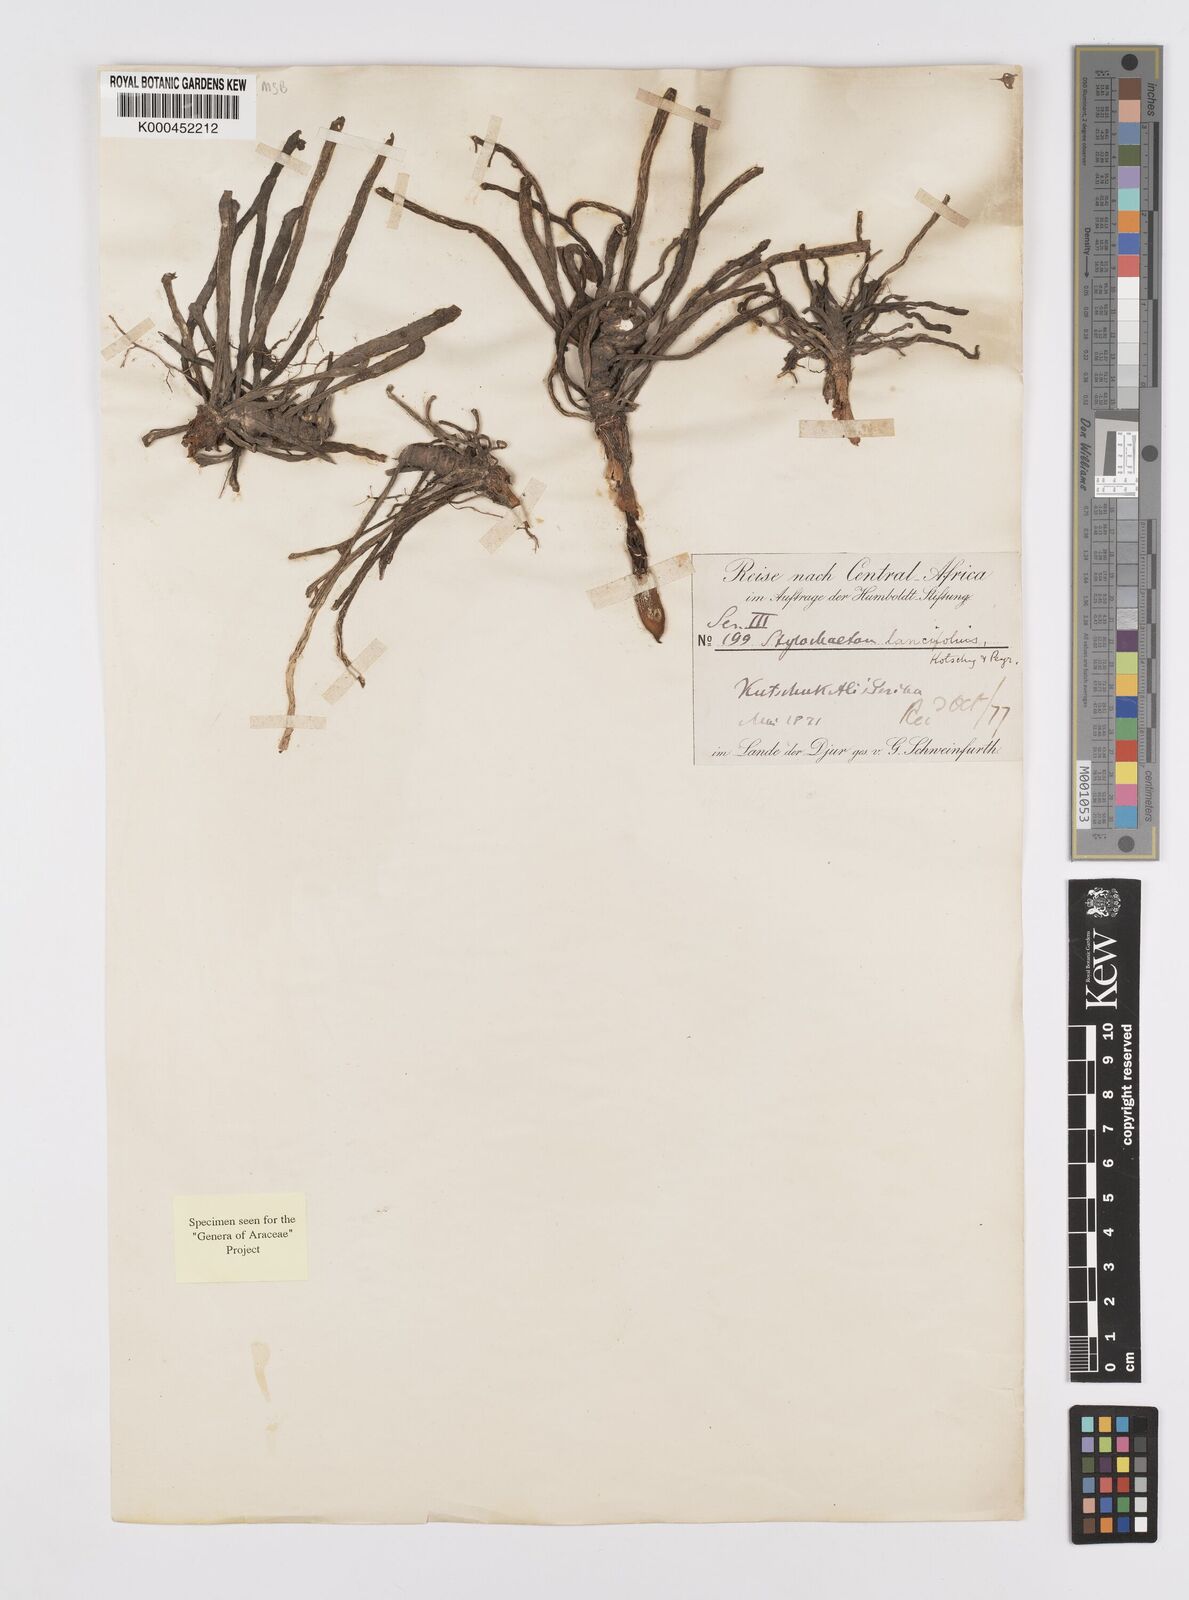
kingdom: Plantae
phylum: Tracheophyta
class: Liliopsida
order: Alismatales
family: Araceae
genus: Stylochaeton
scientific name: Stylochaeton lancifolium
